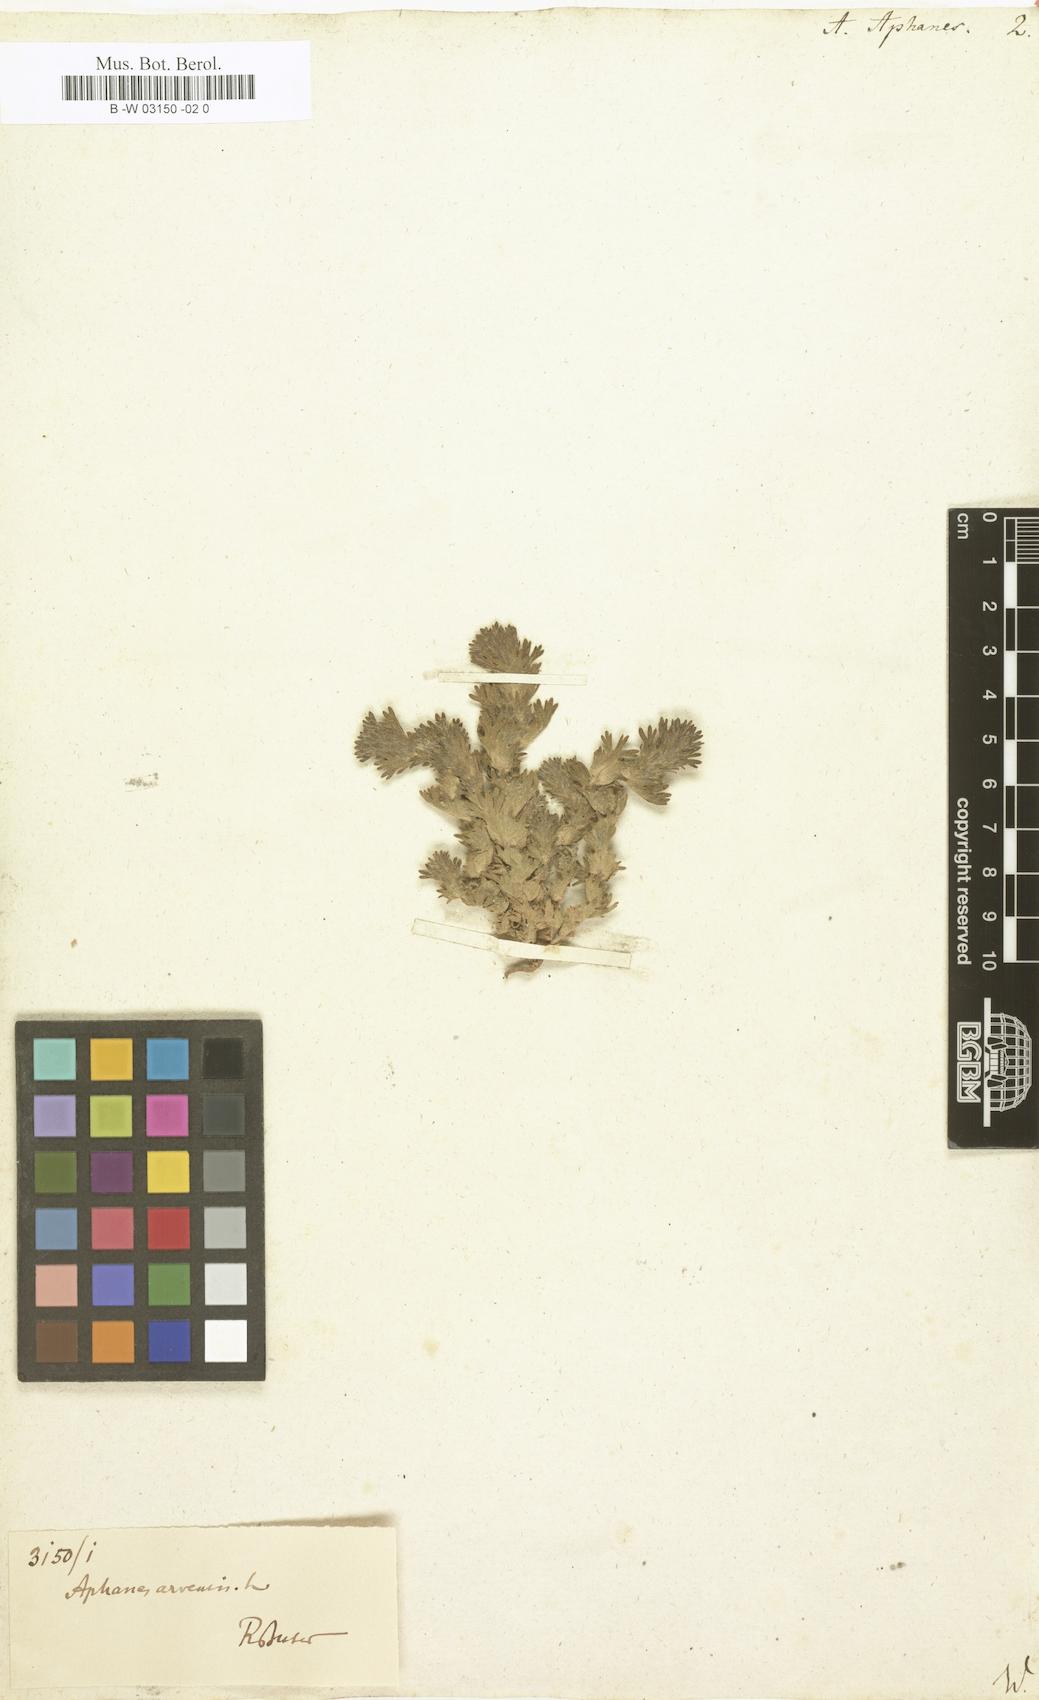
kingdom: Plantae
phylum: Tracheophyta
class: Magnoliopsida
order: Rosales
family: Rosaceae
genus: Aphanes
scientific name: Aphanes arvensis
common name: Parsley-piert
